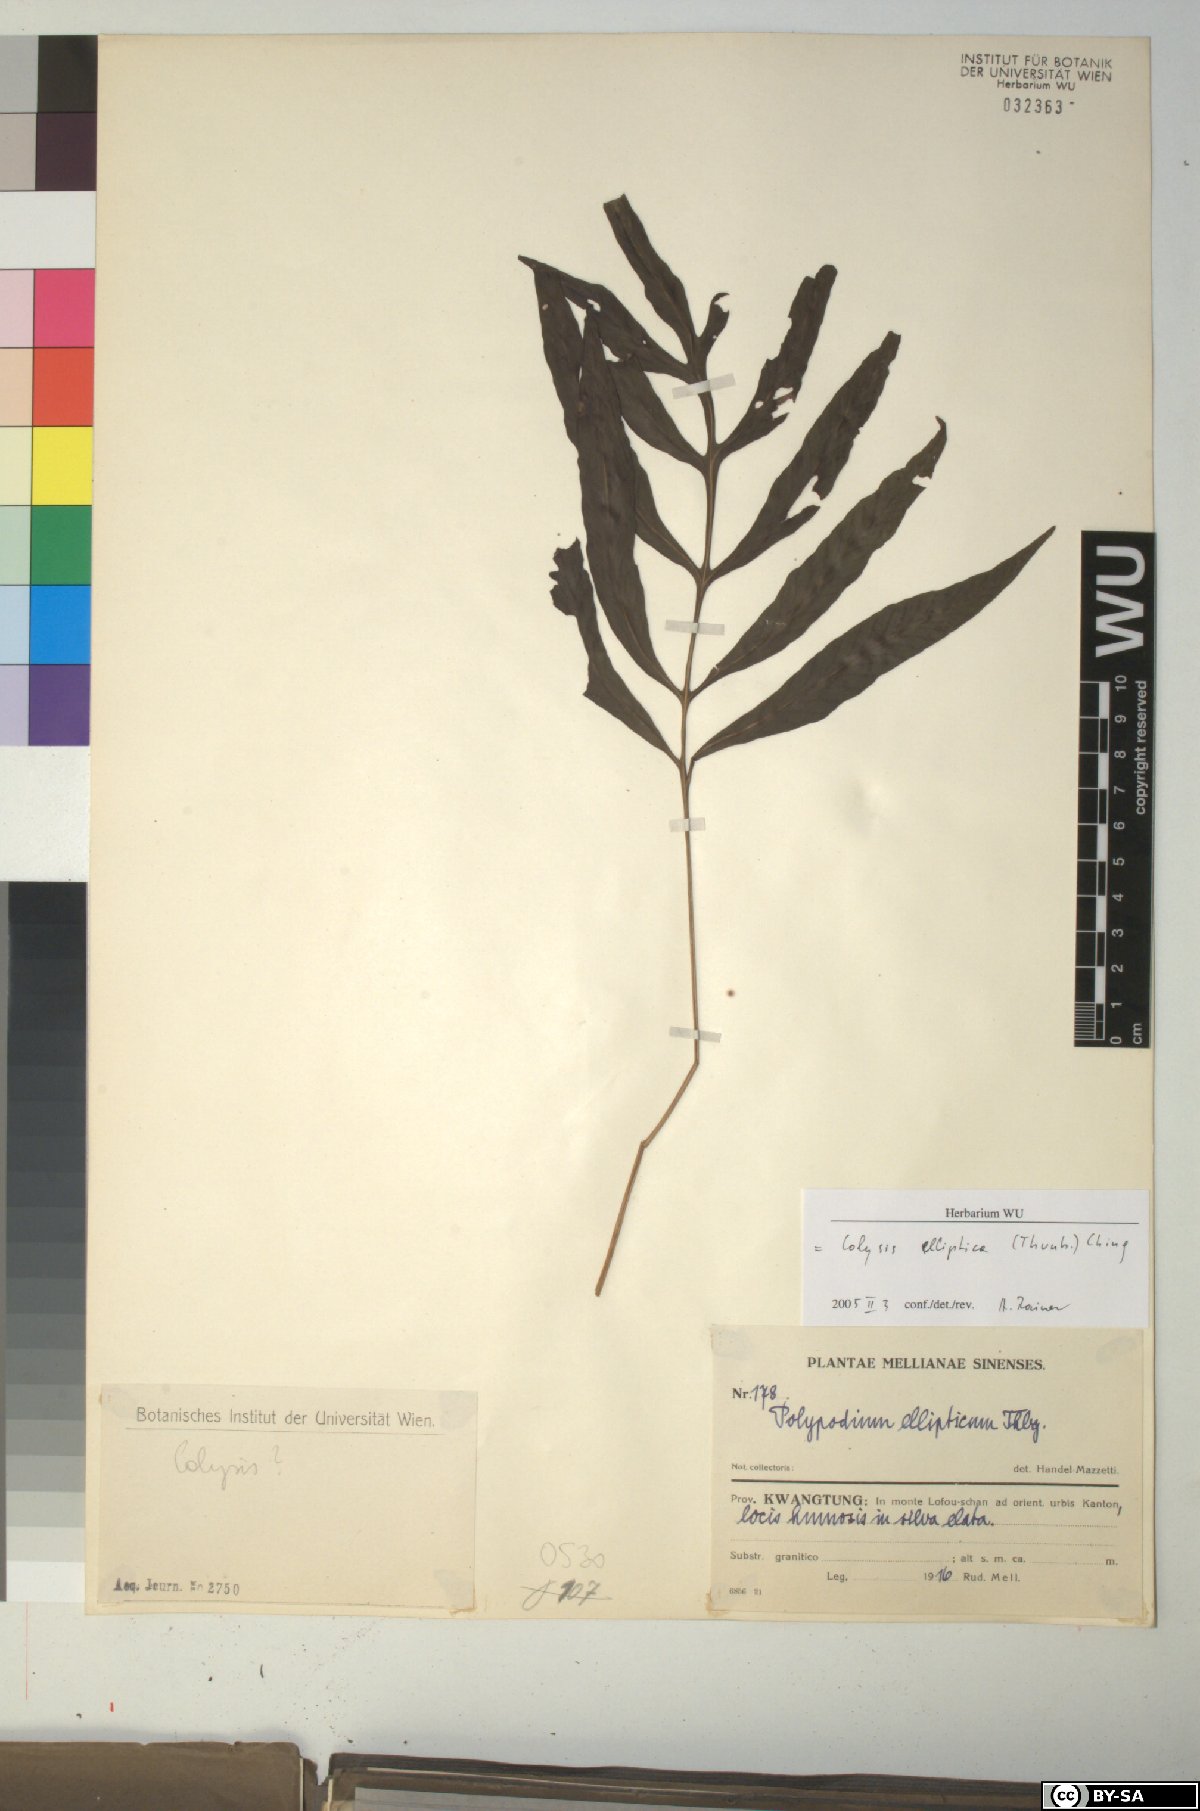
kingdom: Plantae
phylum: Tracheophyta
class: Polypodiopsida
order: Polypodiales
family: Polypodiaceae
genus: Leptochilus
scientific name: Leptochilus ellipticus
